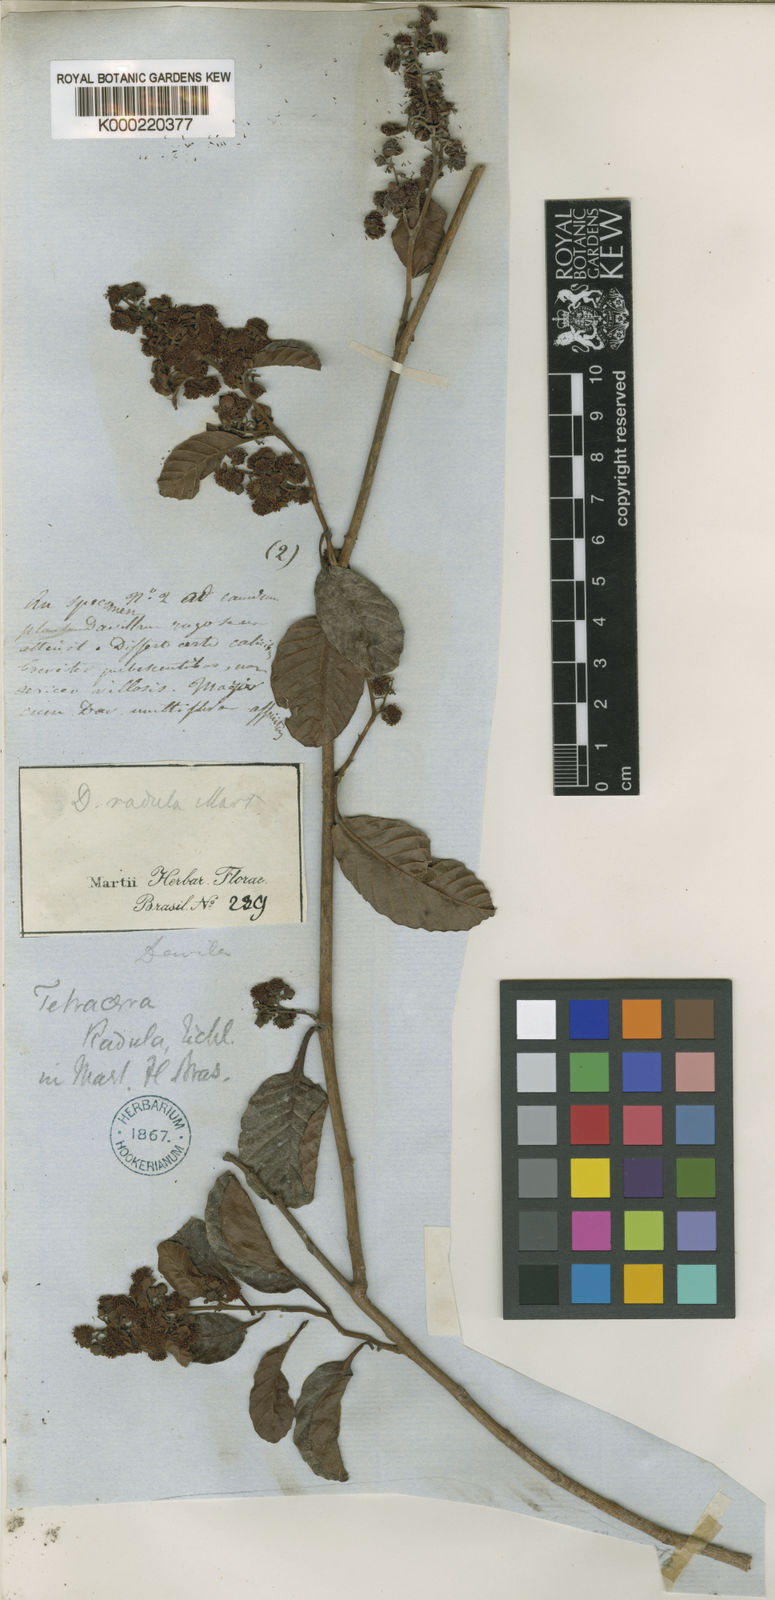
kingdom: Plantae
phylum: Tracheophyta
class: Magnoliopsida
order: Dilleniales
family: Dilleniaceae
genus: Tetracera
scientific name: Tetracera oblongata
